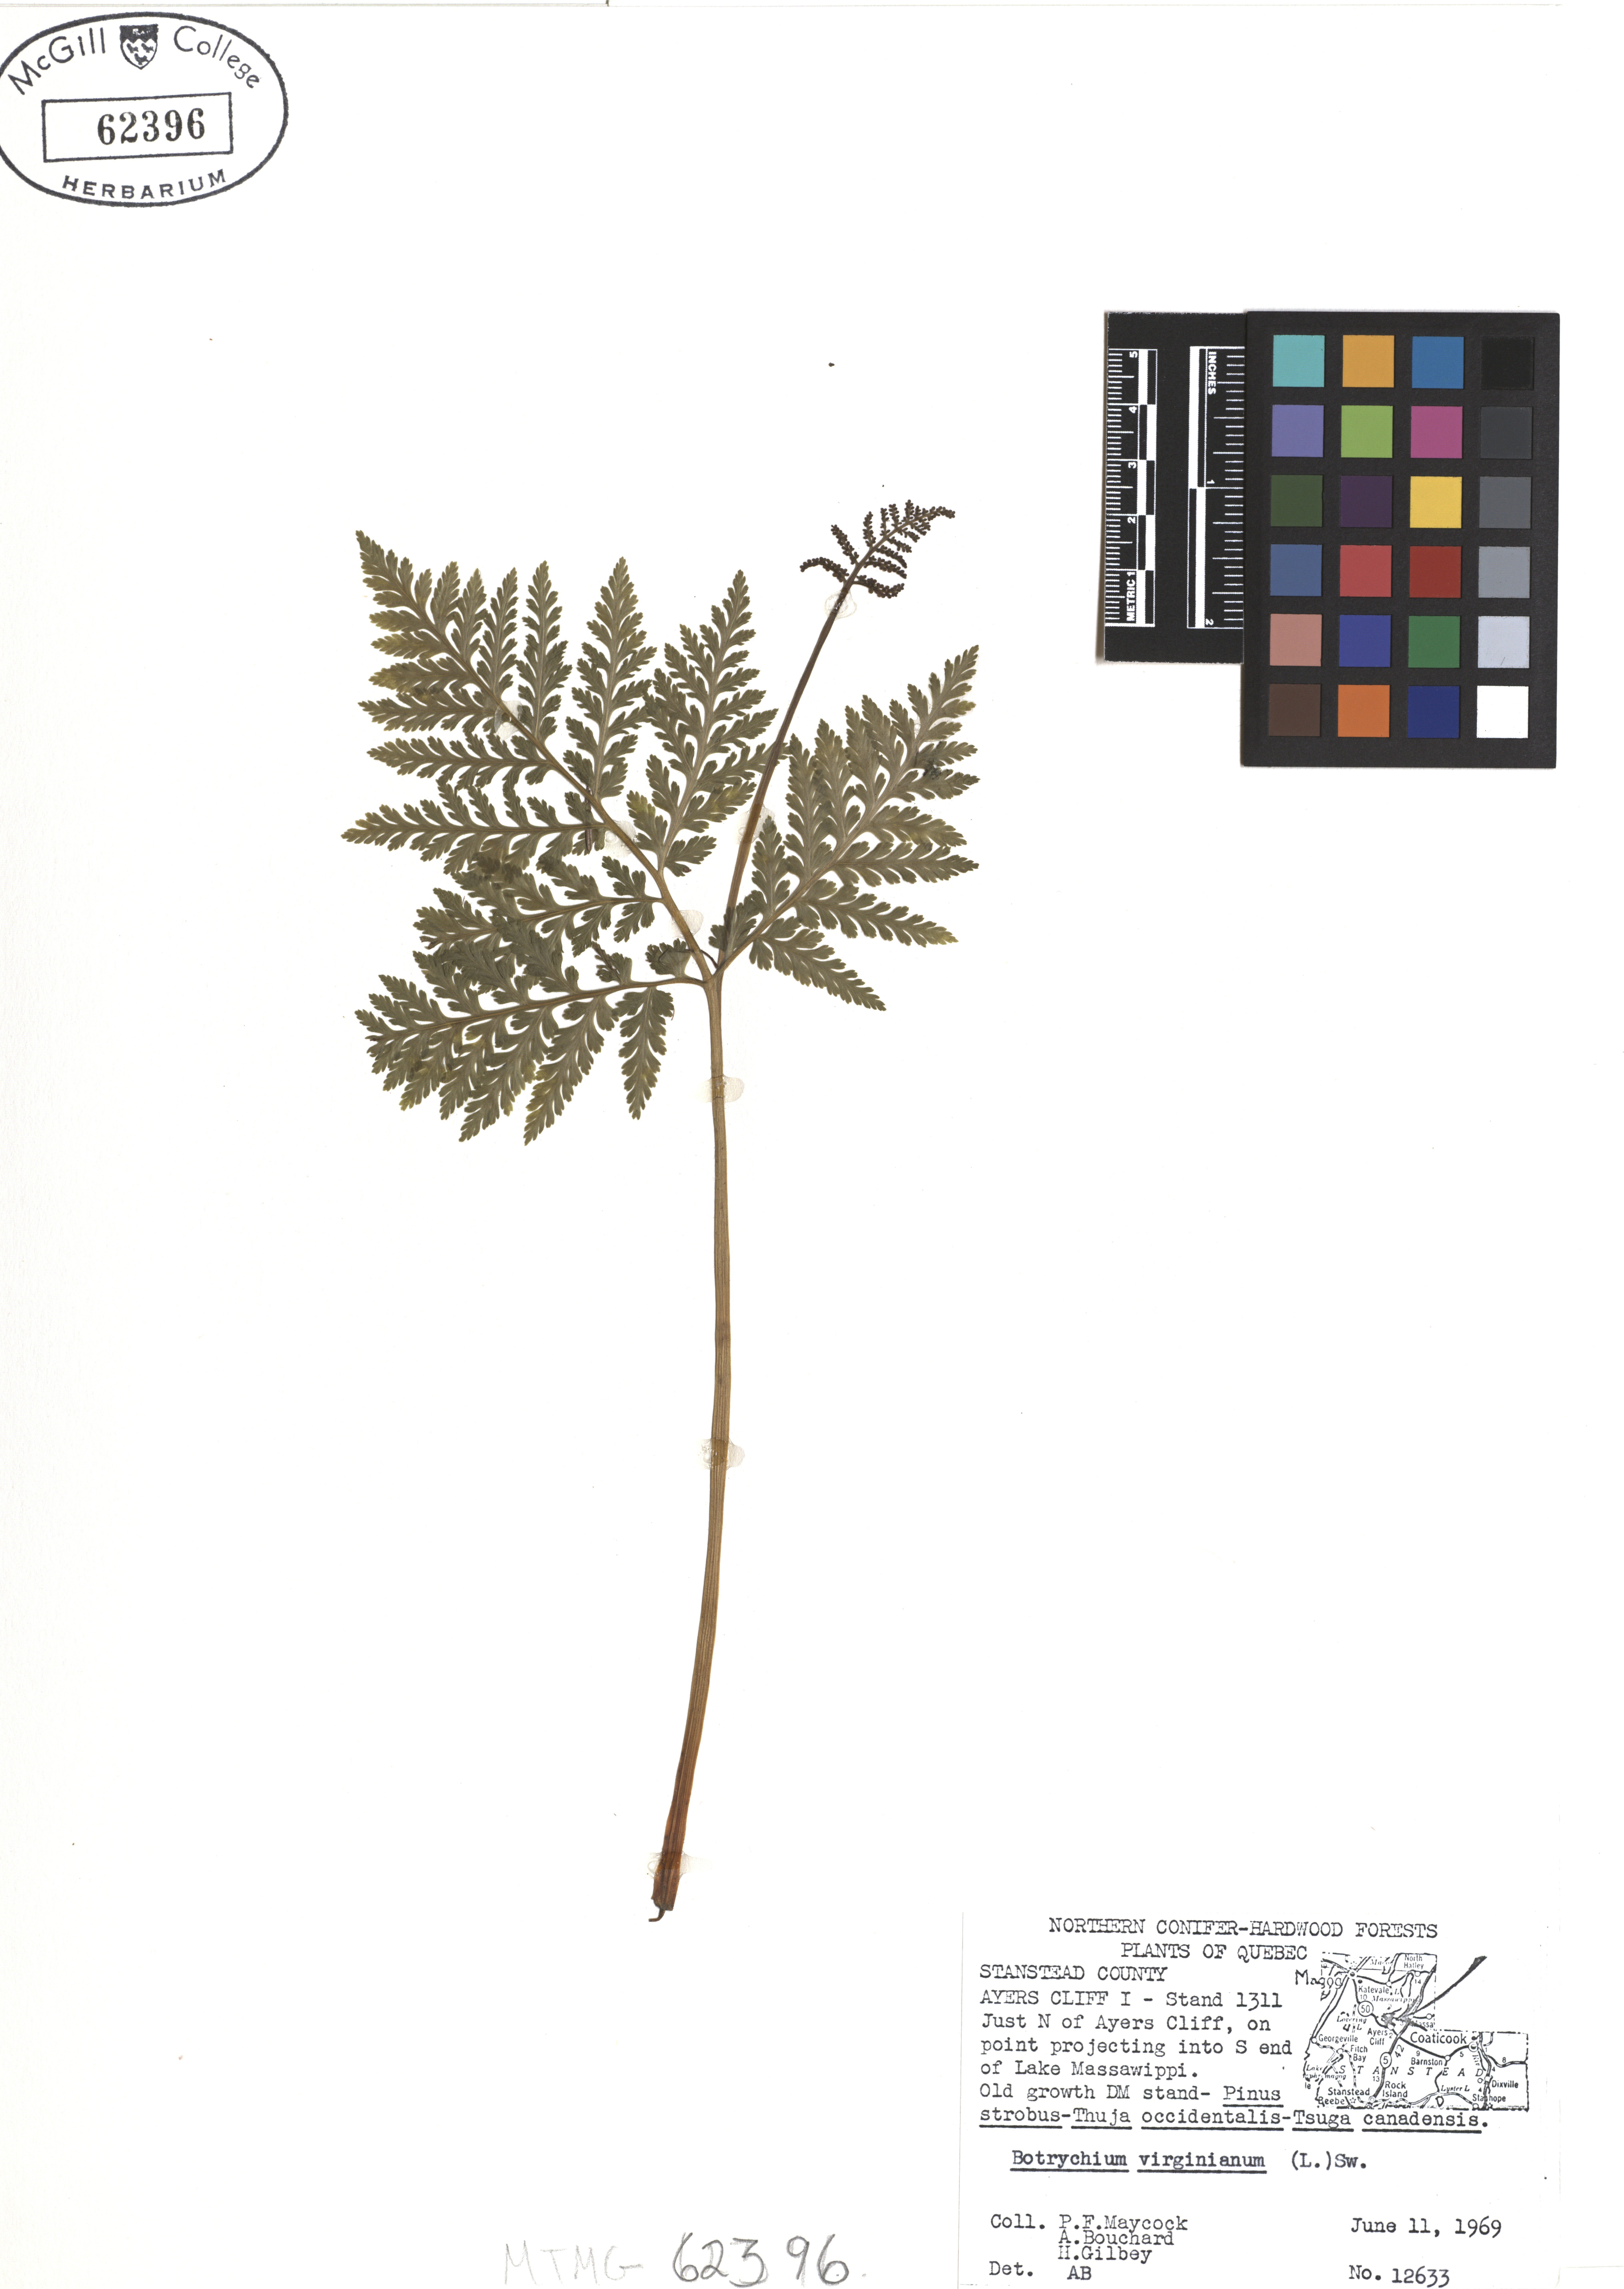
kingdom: Plantae
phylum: Tracheophyta
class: Polypodiopsida
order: Ophioglossales
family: Ophioglossaceae
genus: Botrypus
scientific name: Botrypus virginianus
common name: Common grapefern
